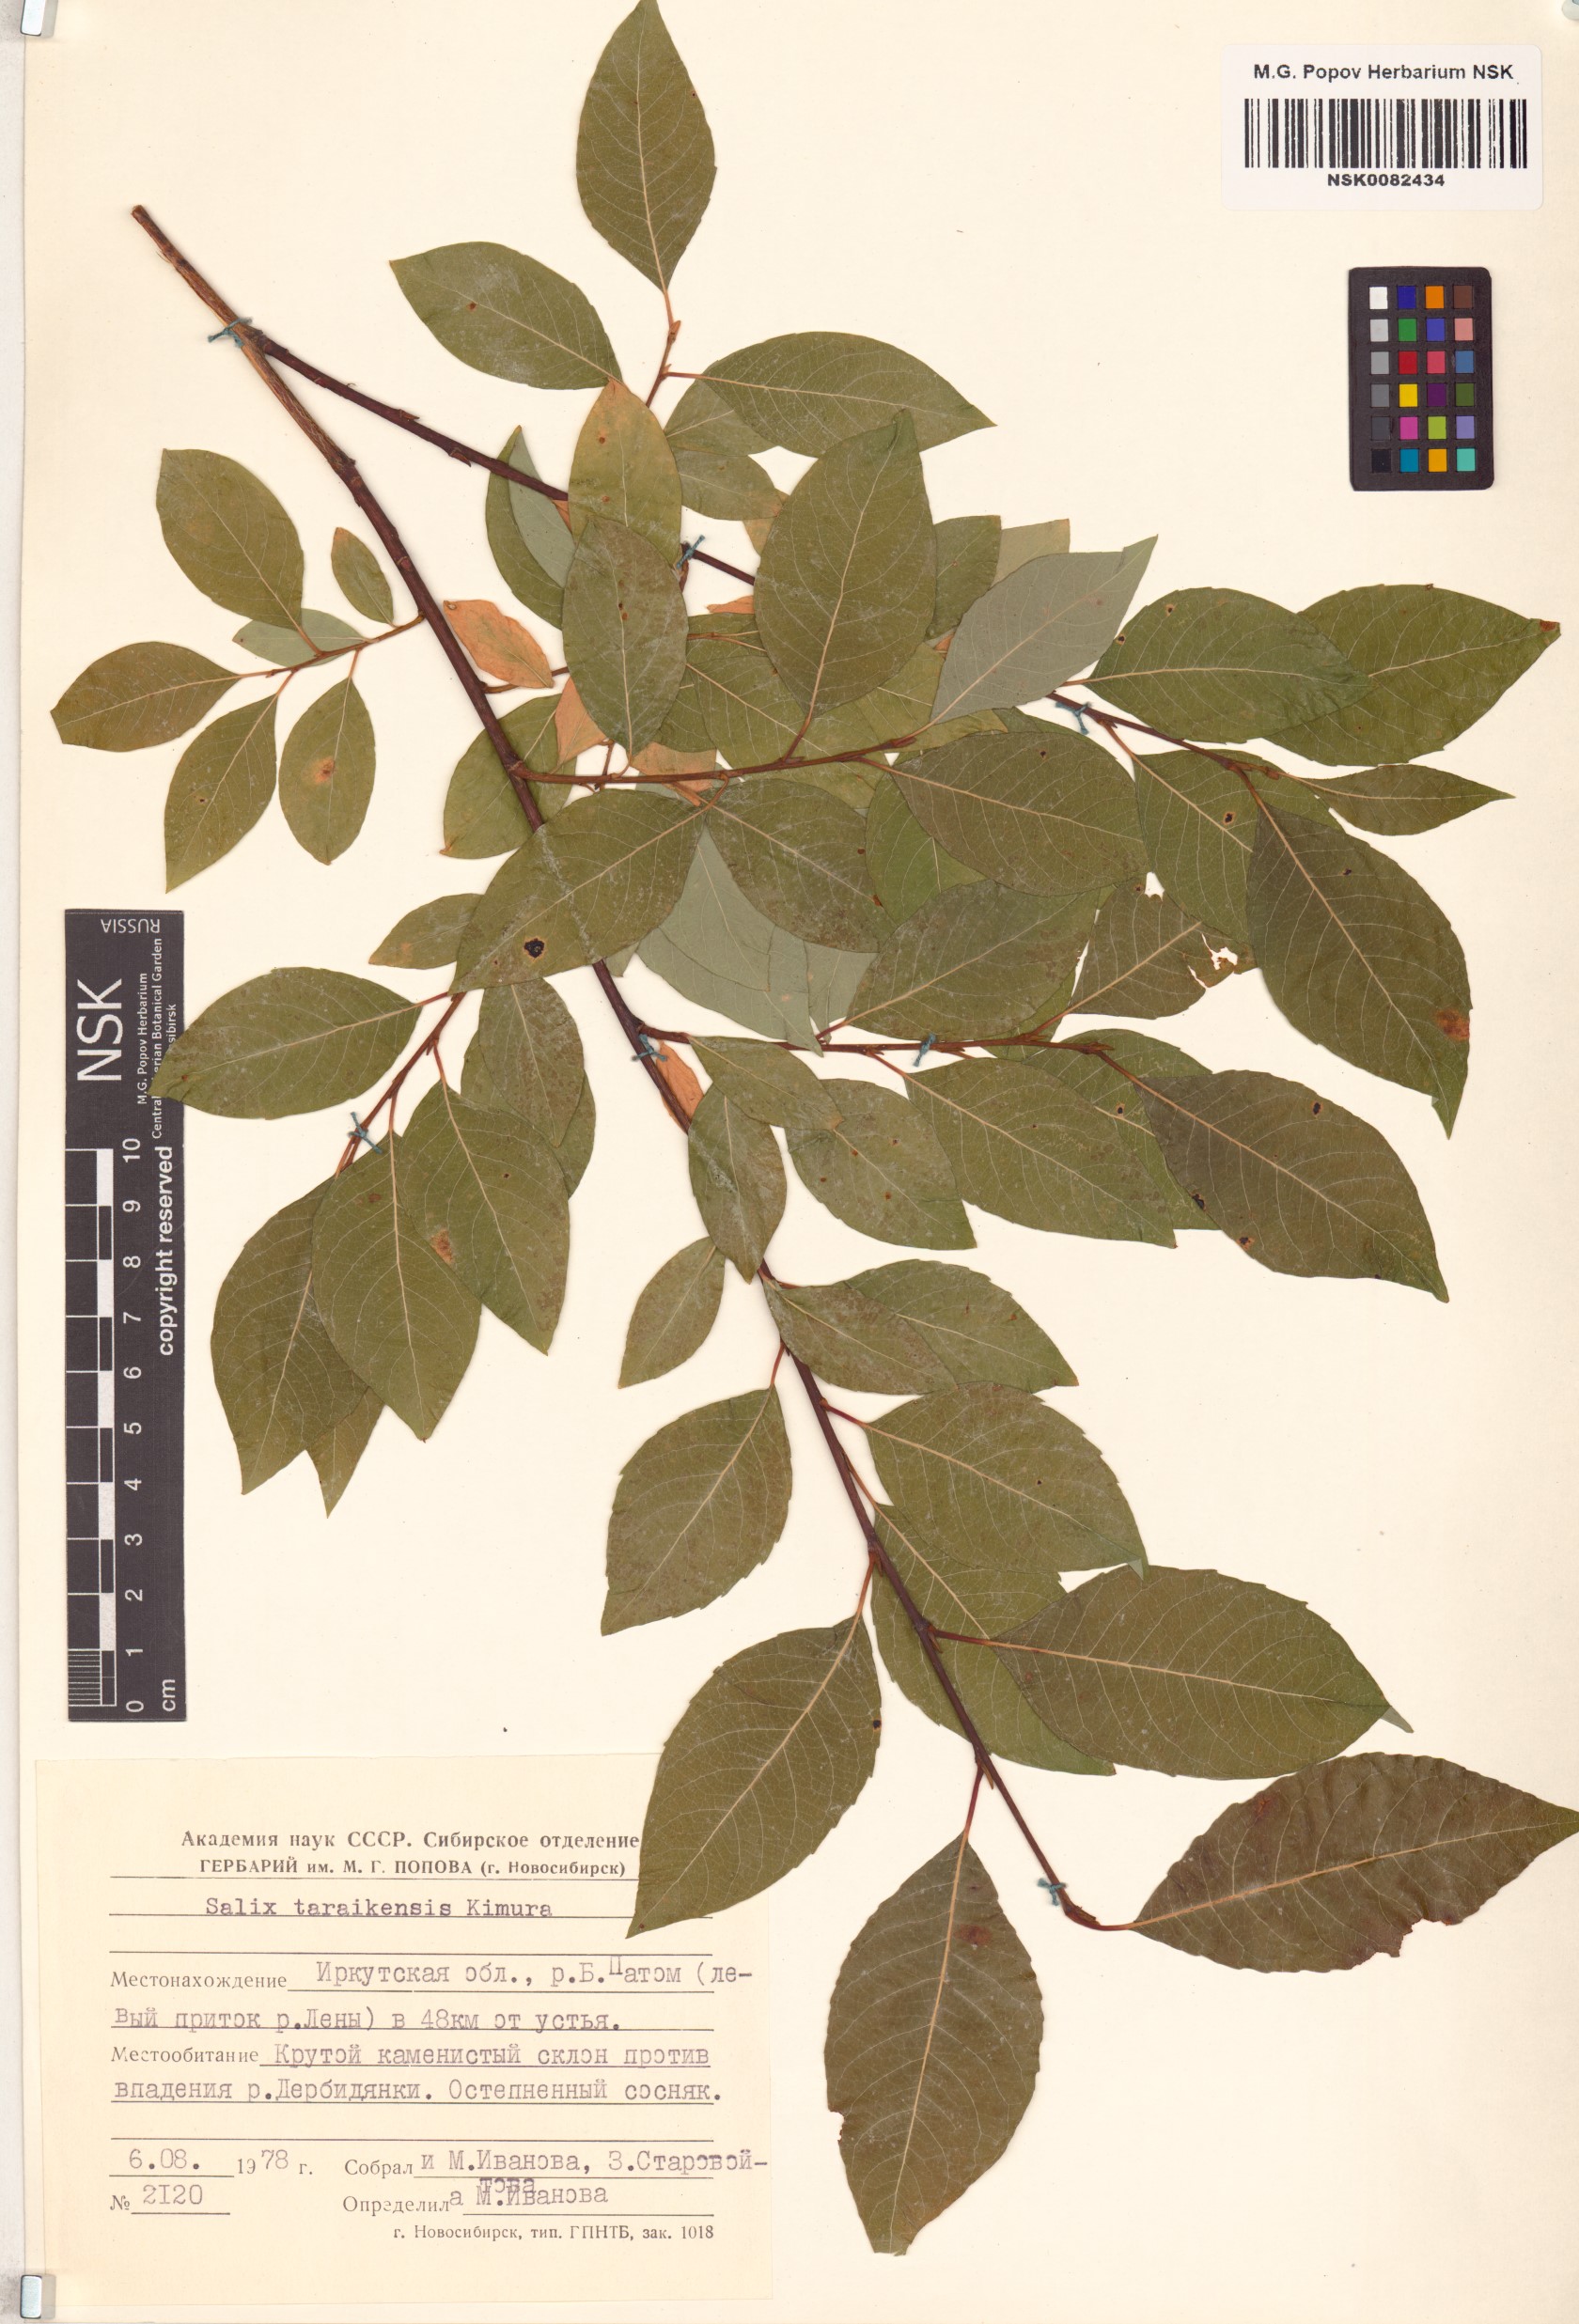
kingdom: Plantae
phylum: Tracheophyta
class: Magnoliopsida
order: Malpighiales
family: Salicaceae
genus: Salix
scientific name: Salix taraikensis
